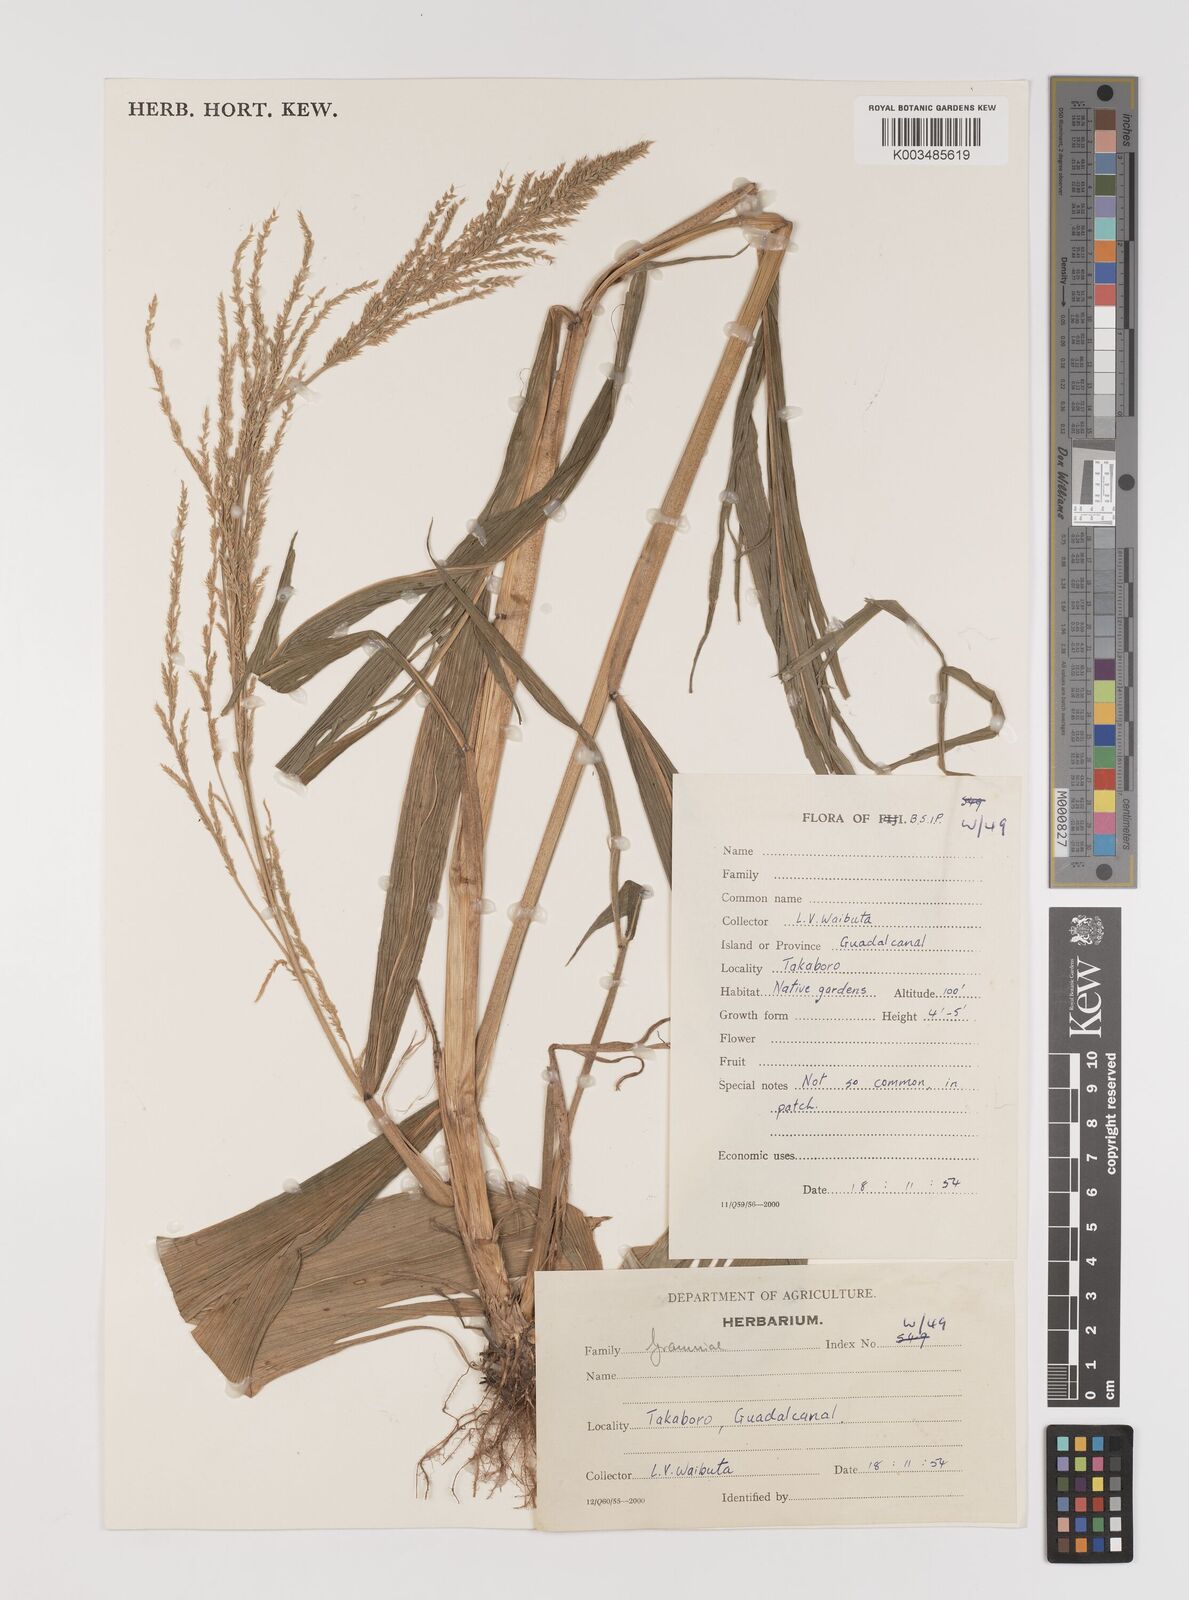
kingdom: Plantae
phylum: Tracheophyta
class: Liliopsida
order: Poales
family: Poaceae
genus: Setaria
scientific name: Setaria palmifolia
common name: Broadleaved bristlegrass
